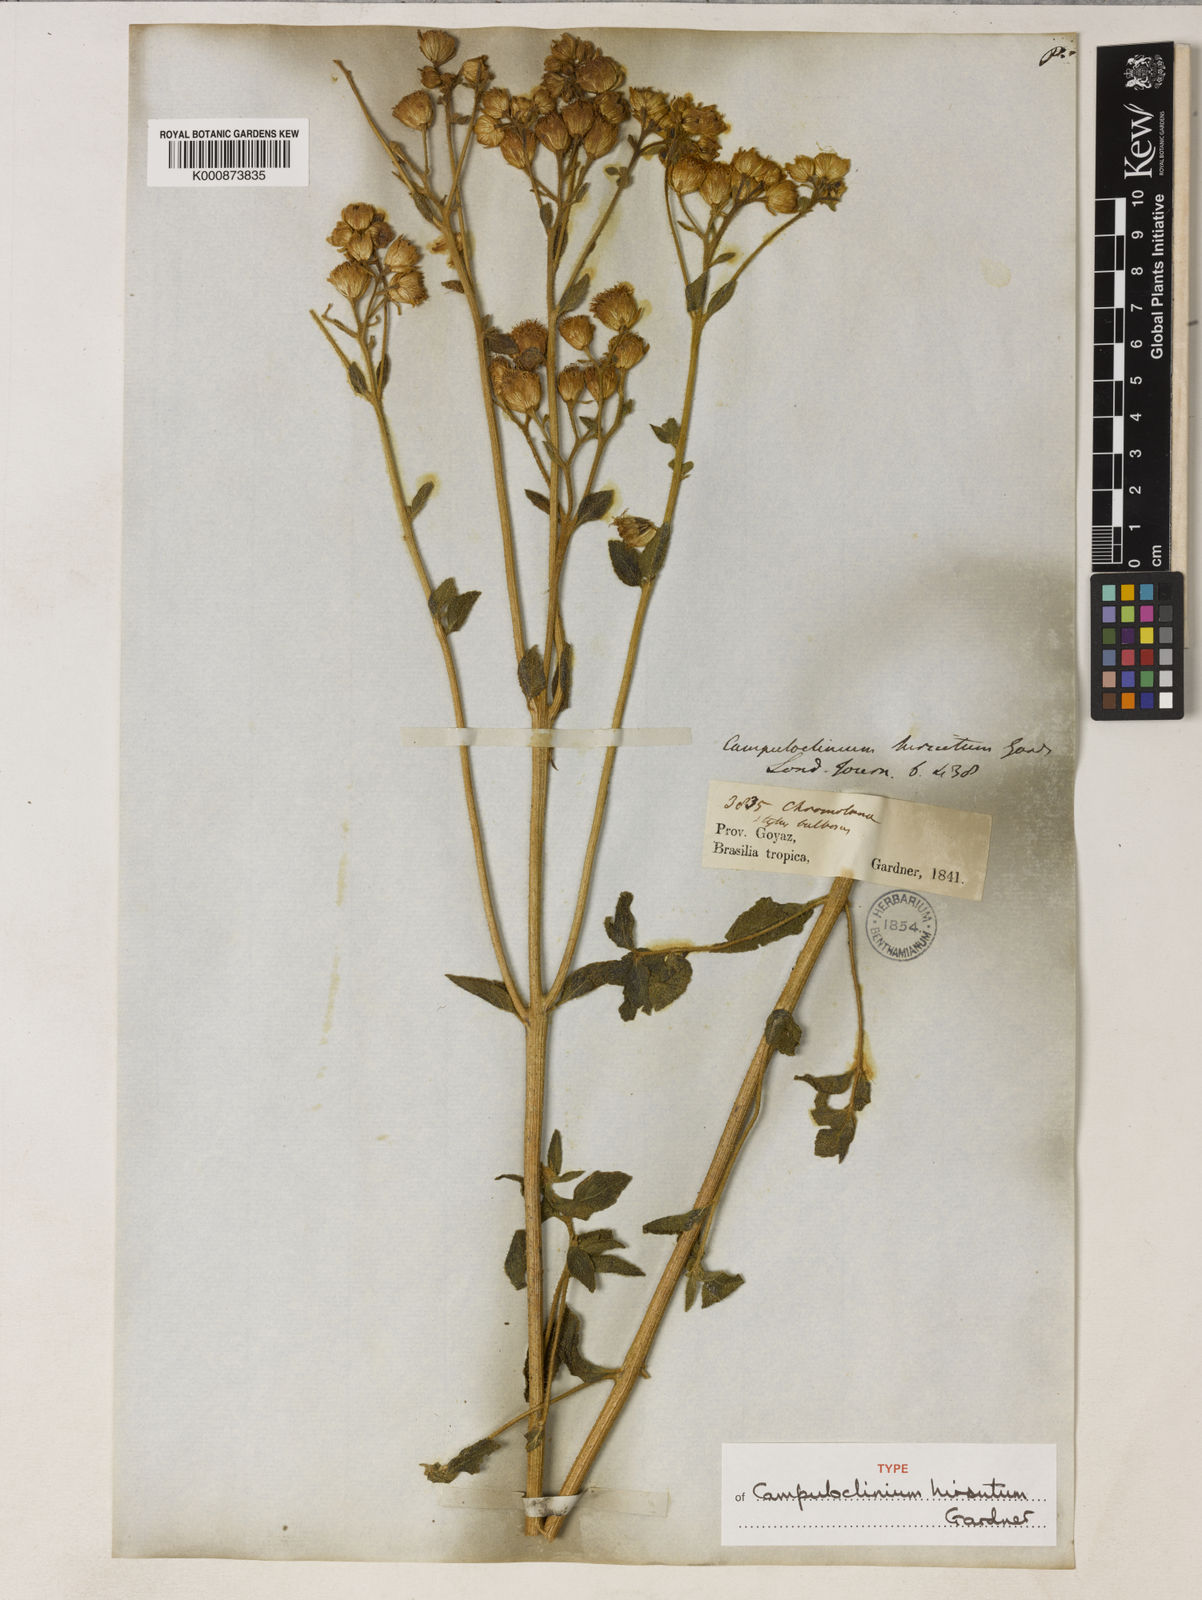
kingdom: Plantae
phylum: Tracheophyta
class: Magnoliopsida
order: Asterales
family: Asteraceae
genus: Campuloclinium
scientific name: Campuloclinium hirsutum
